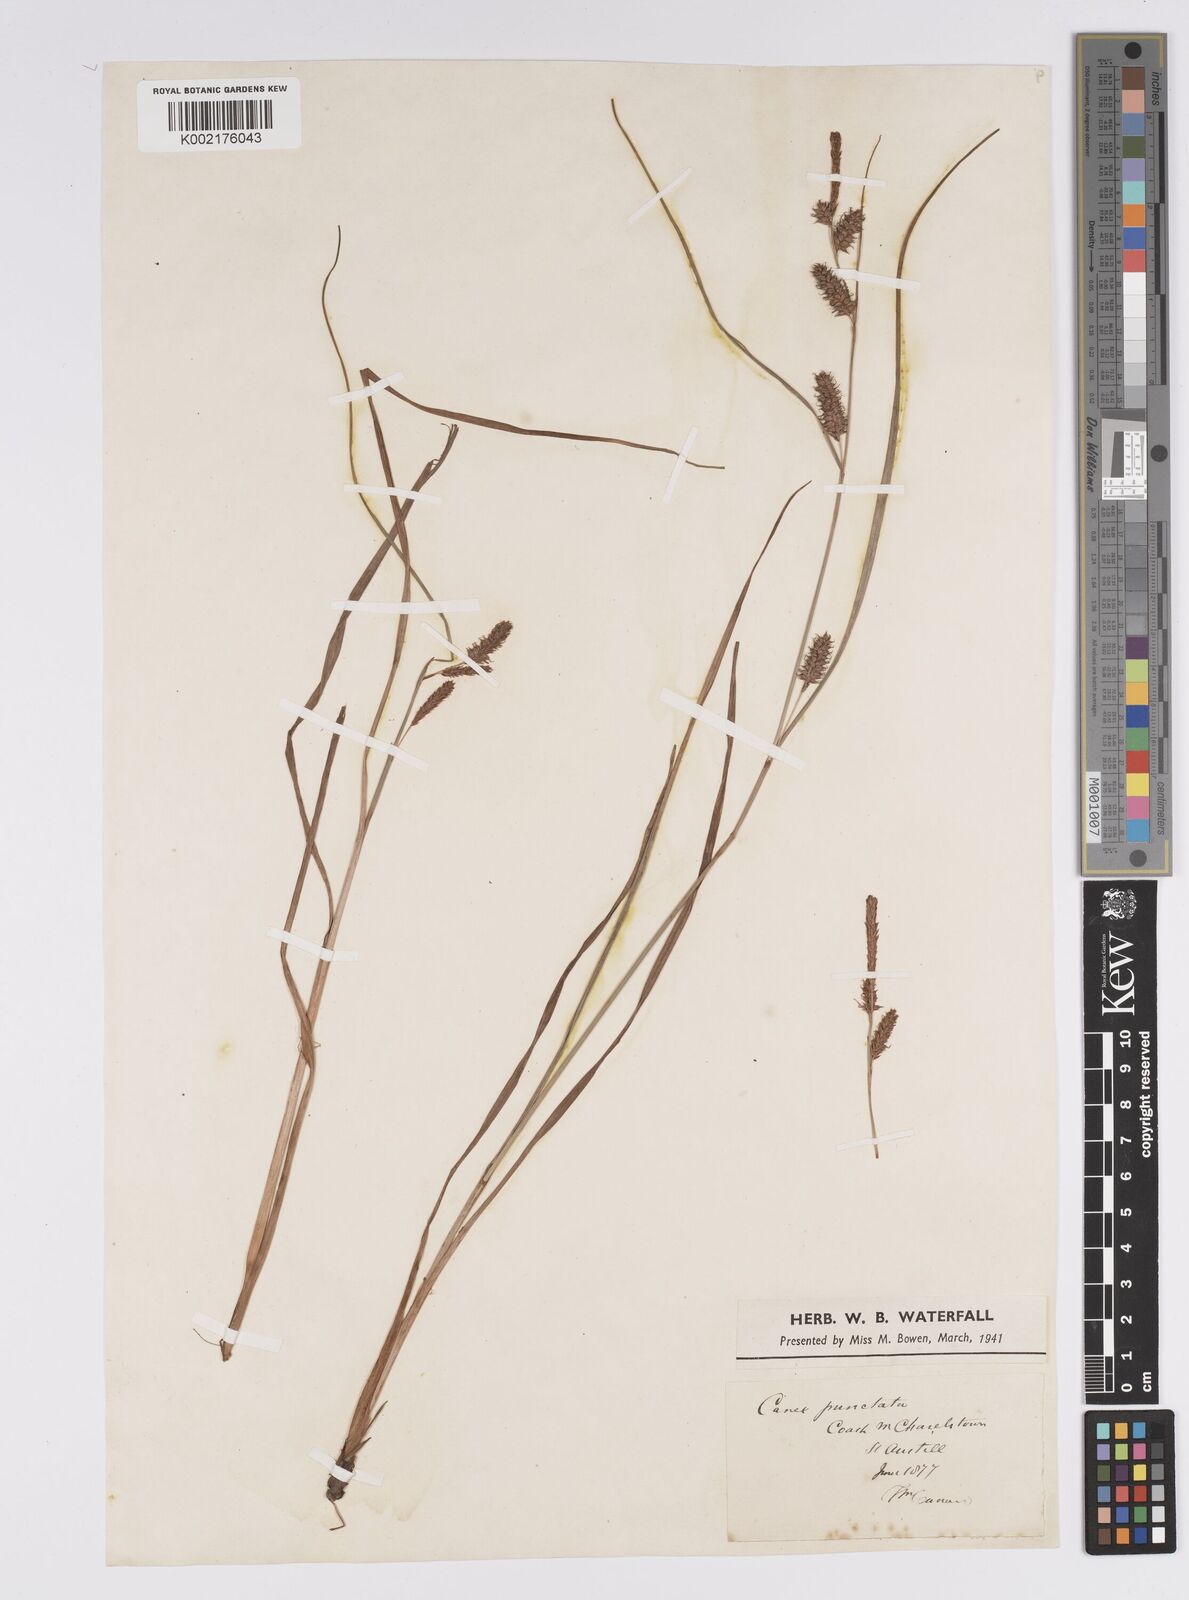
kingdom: Plantae
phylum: Tracheophyta
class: Liliopsida
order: Poales
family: Cyperaceae
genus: Carex
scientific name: Carex punctata
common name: Dotted sedge
